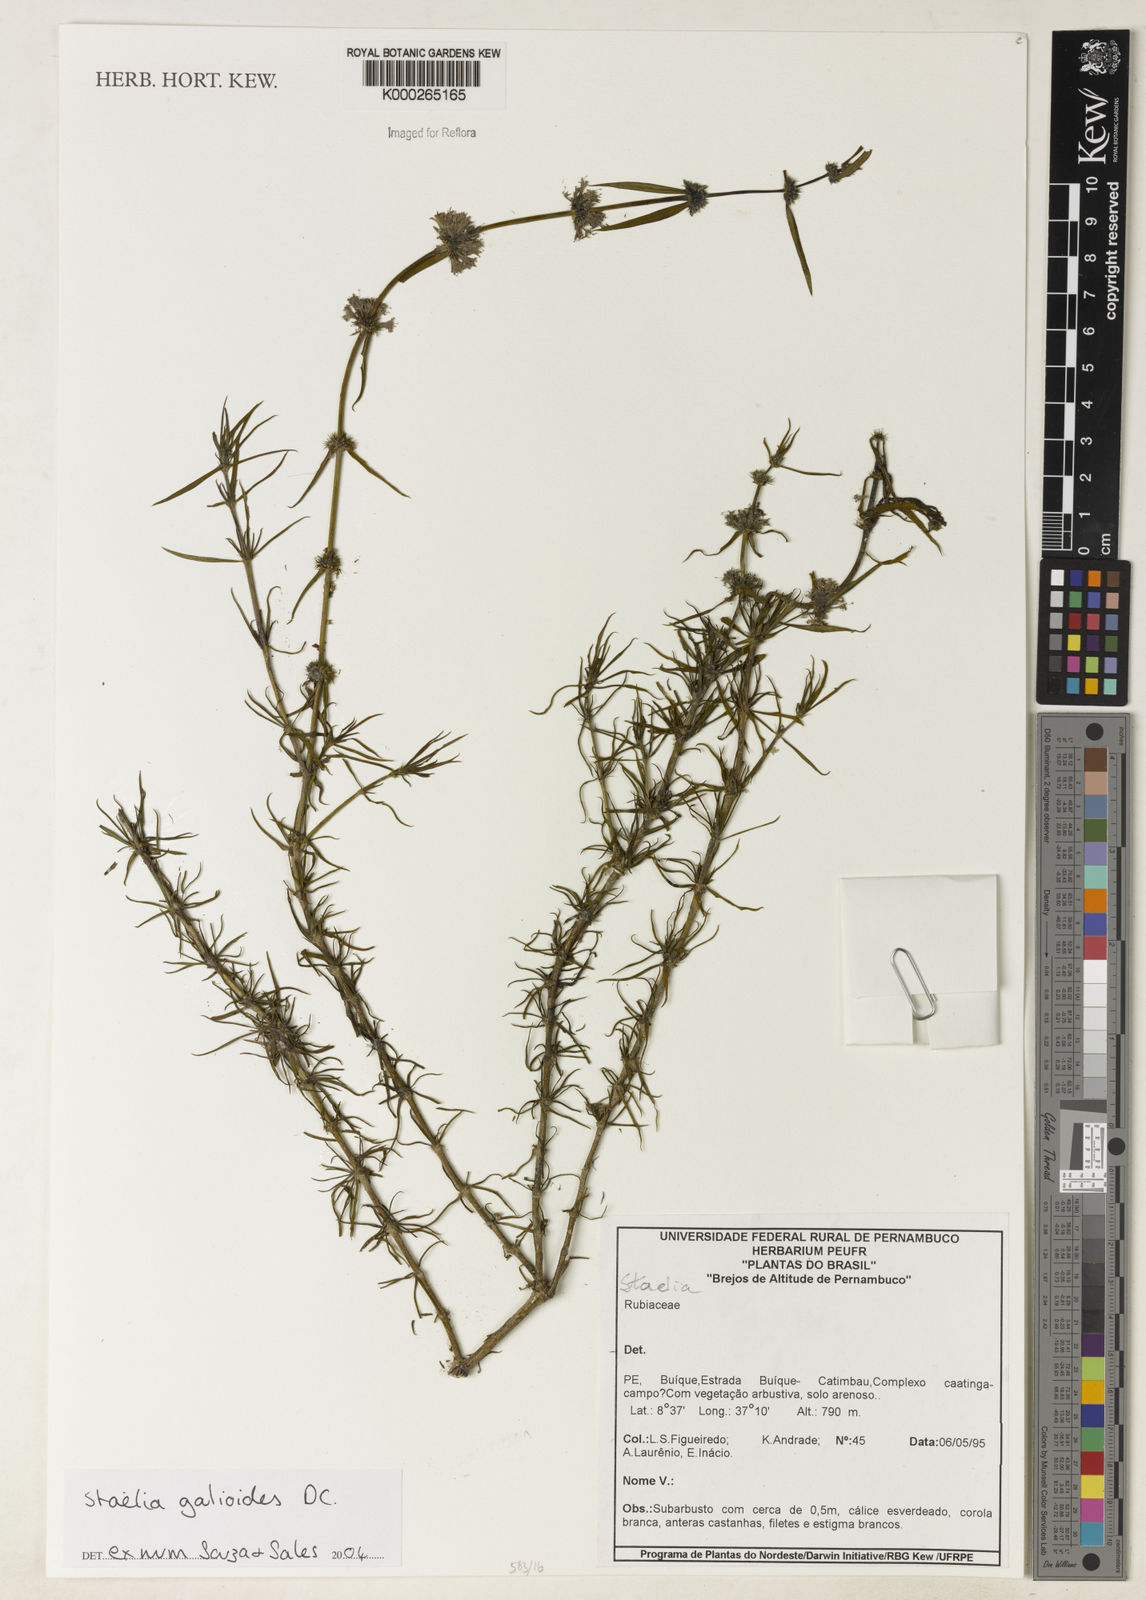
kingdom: Plantae
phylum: Tracheophyta
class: Magnoliopsida
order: Gentianales
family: Rubiaceae
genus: Staelia
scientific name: Staelia galioides
